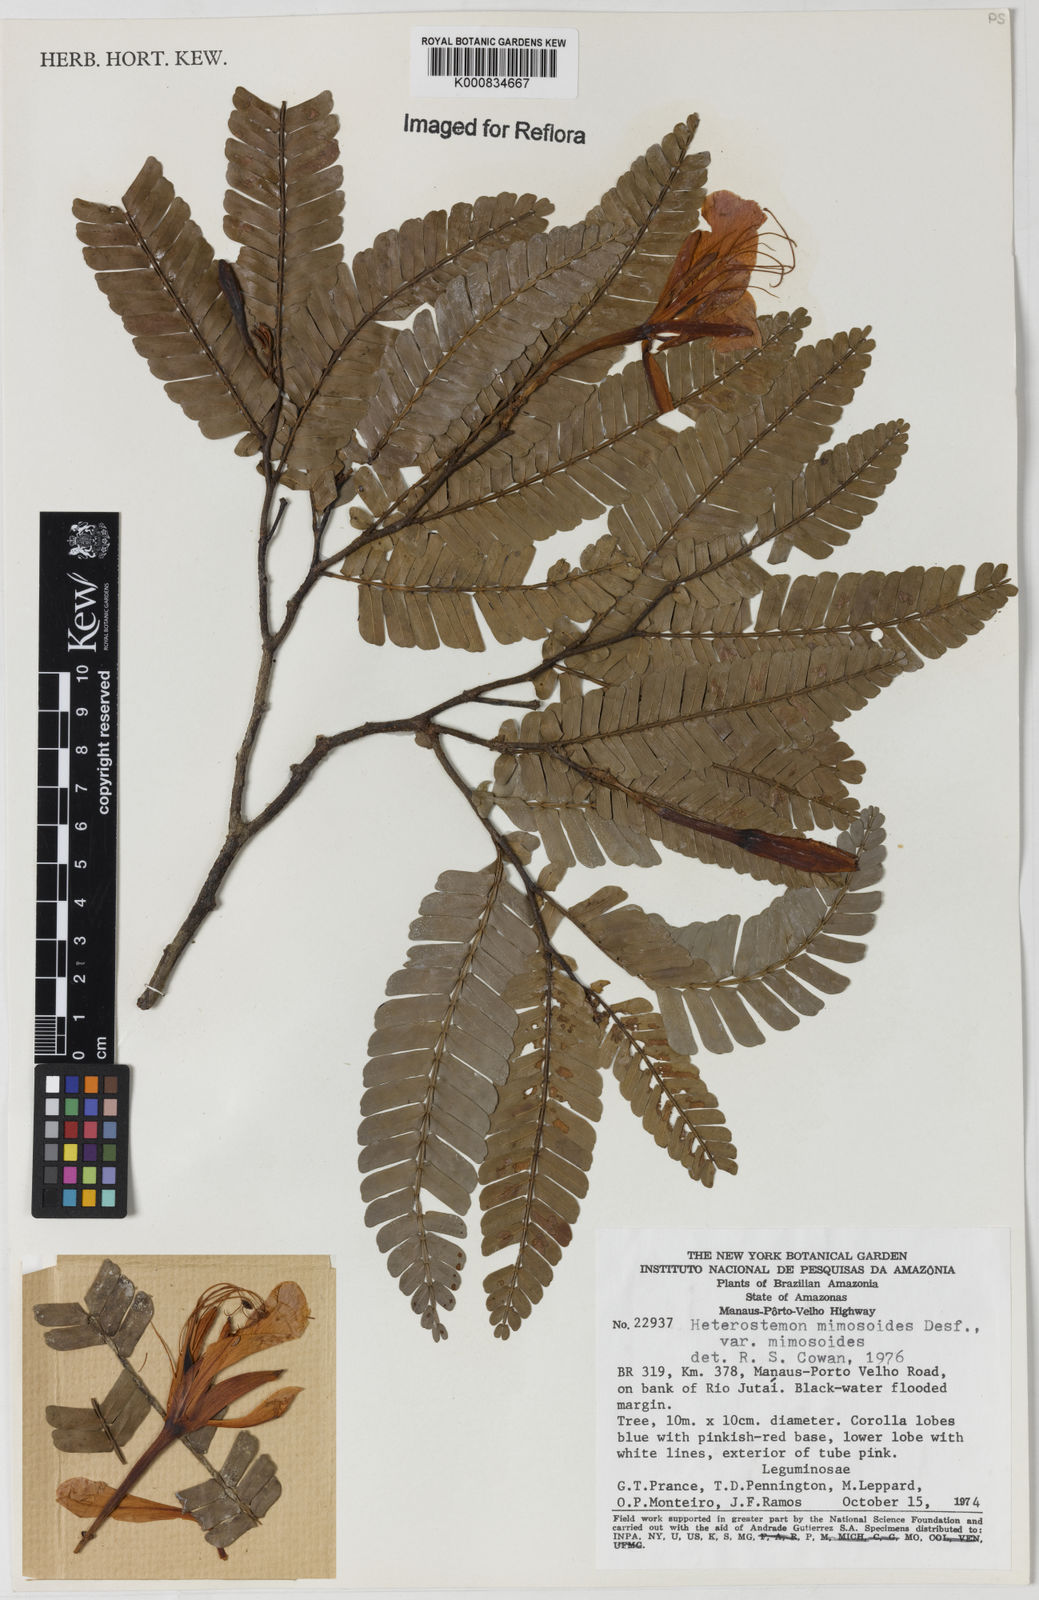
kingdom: Plantae
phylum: Tracheophyta
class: Magnoliopsida
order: Fabales
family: Fabaceae
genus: Heterostemon
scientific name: Heterostemon mimosoides
